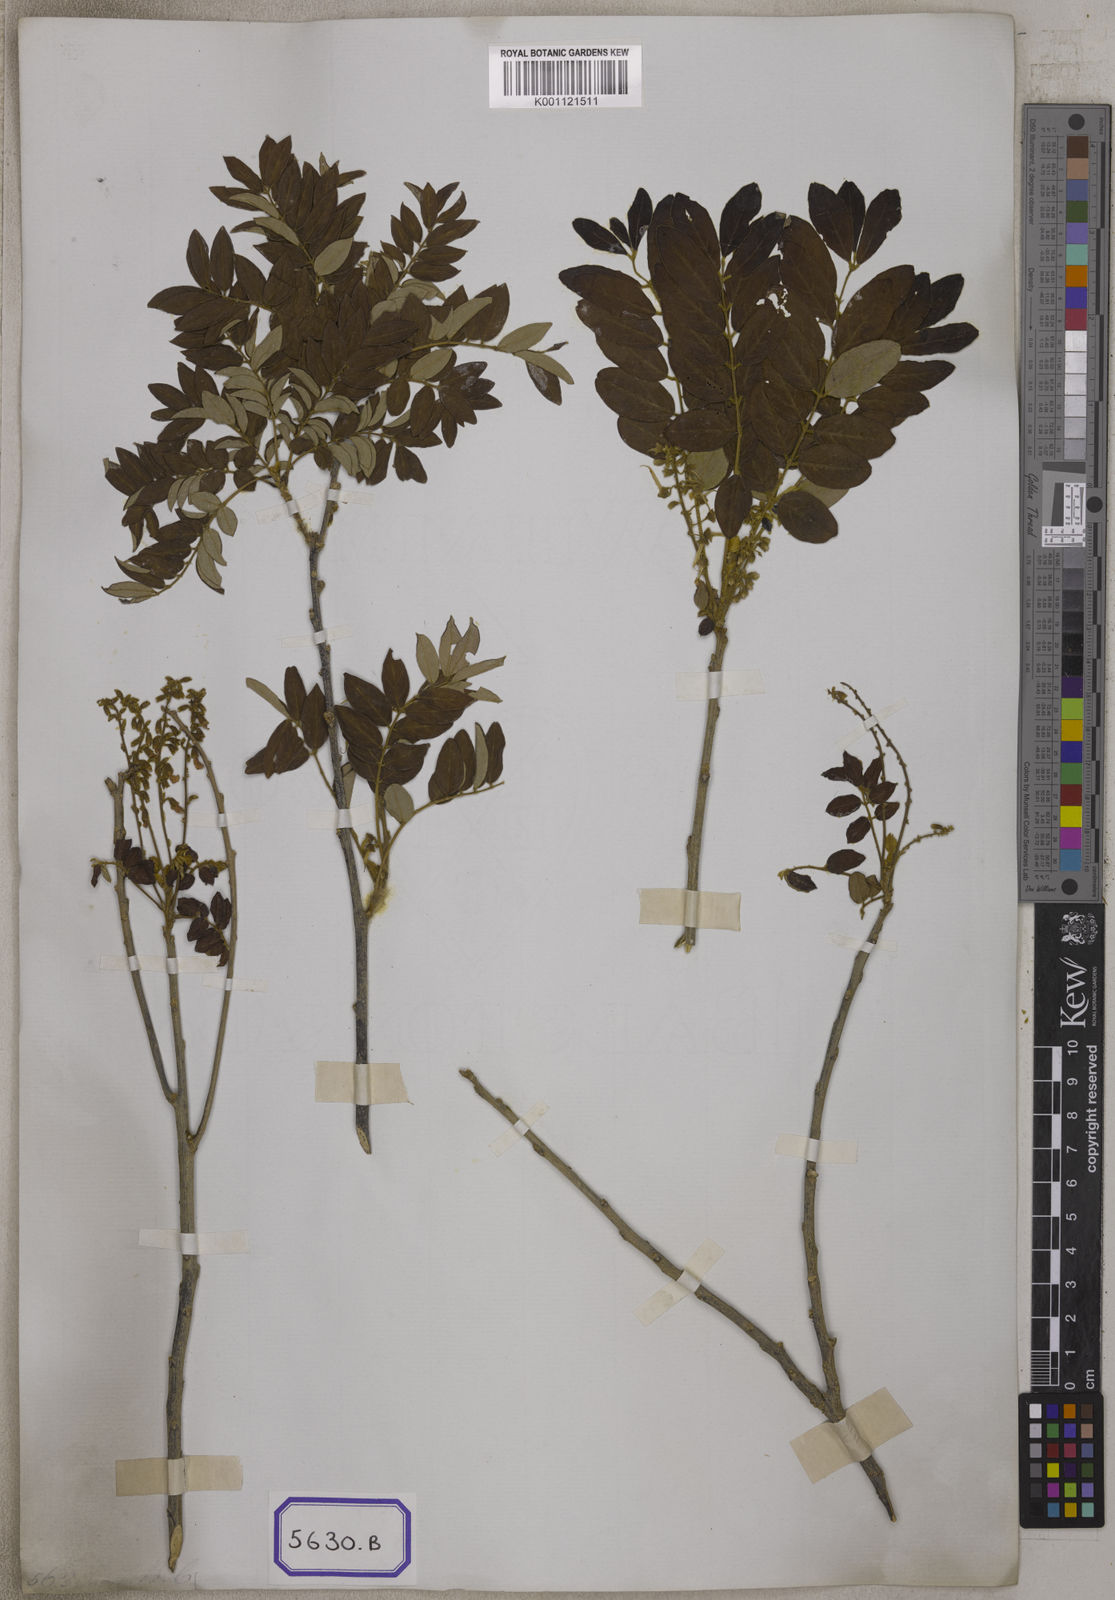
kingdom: Plantae
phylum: Tracheophyta
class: Magnoliopsida
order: Fabales
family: Fabaceae
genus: Millettia
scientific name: Millettia pulchra
